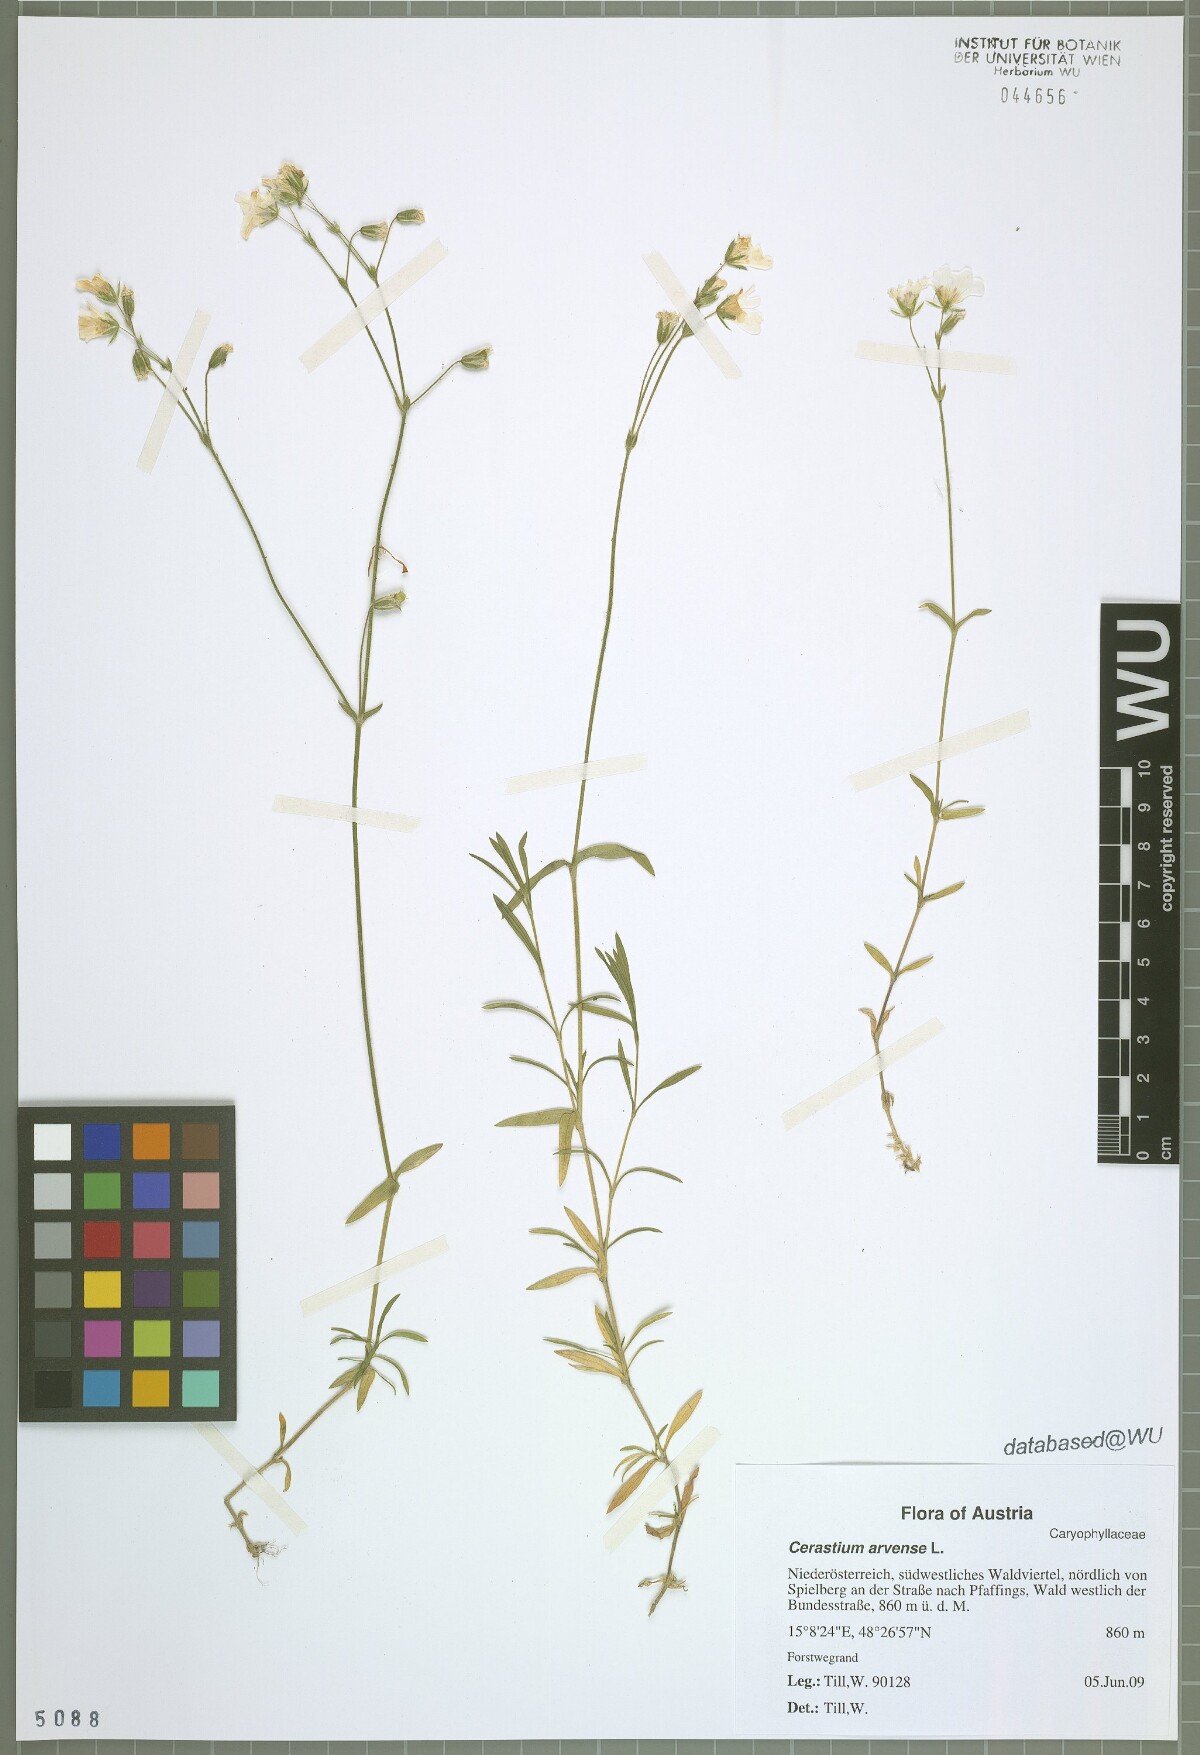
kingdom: Plantae
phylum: Tracheophyta
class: Magnoliopsida
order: Caryophyllales
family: Caryophyllaceae
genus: Cerastium
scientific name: Cerastium arvense
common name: Field mouse-ear
